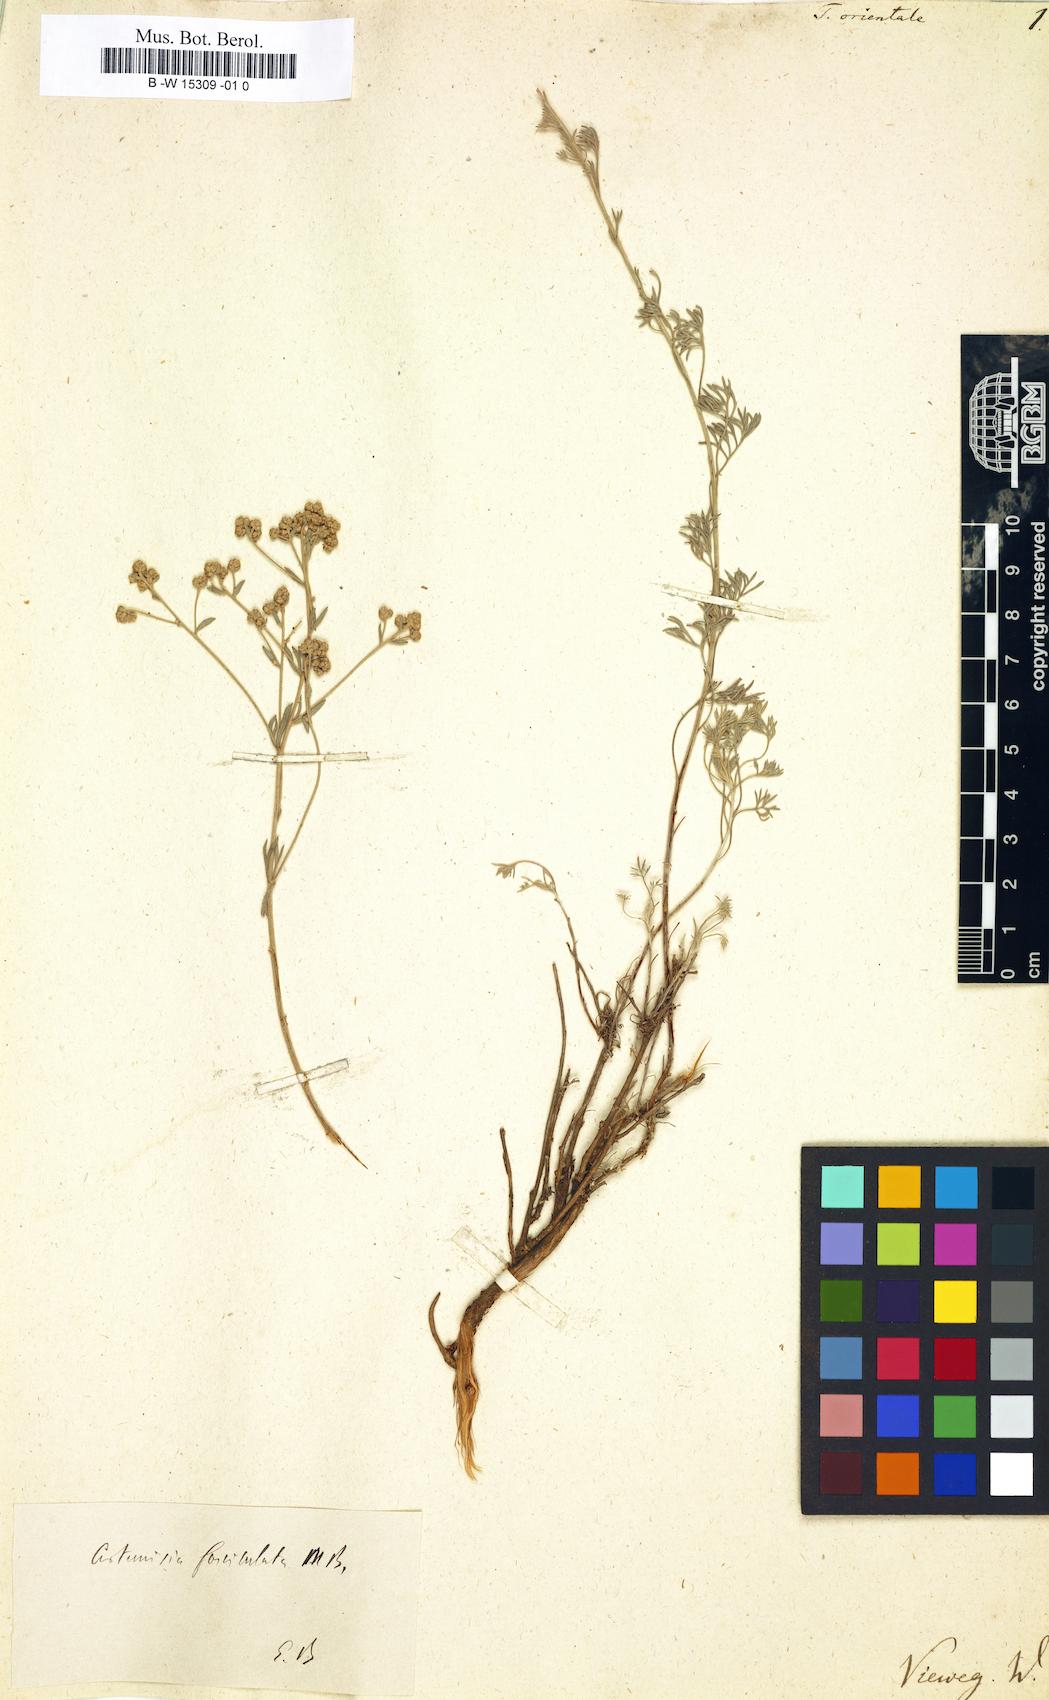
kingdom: Plantae
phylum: Tracheophyta
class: Magnoliopsida
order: Asterales
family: Asteraceae
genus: Artemisia
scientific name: Artemisia incana
